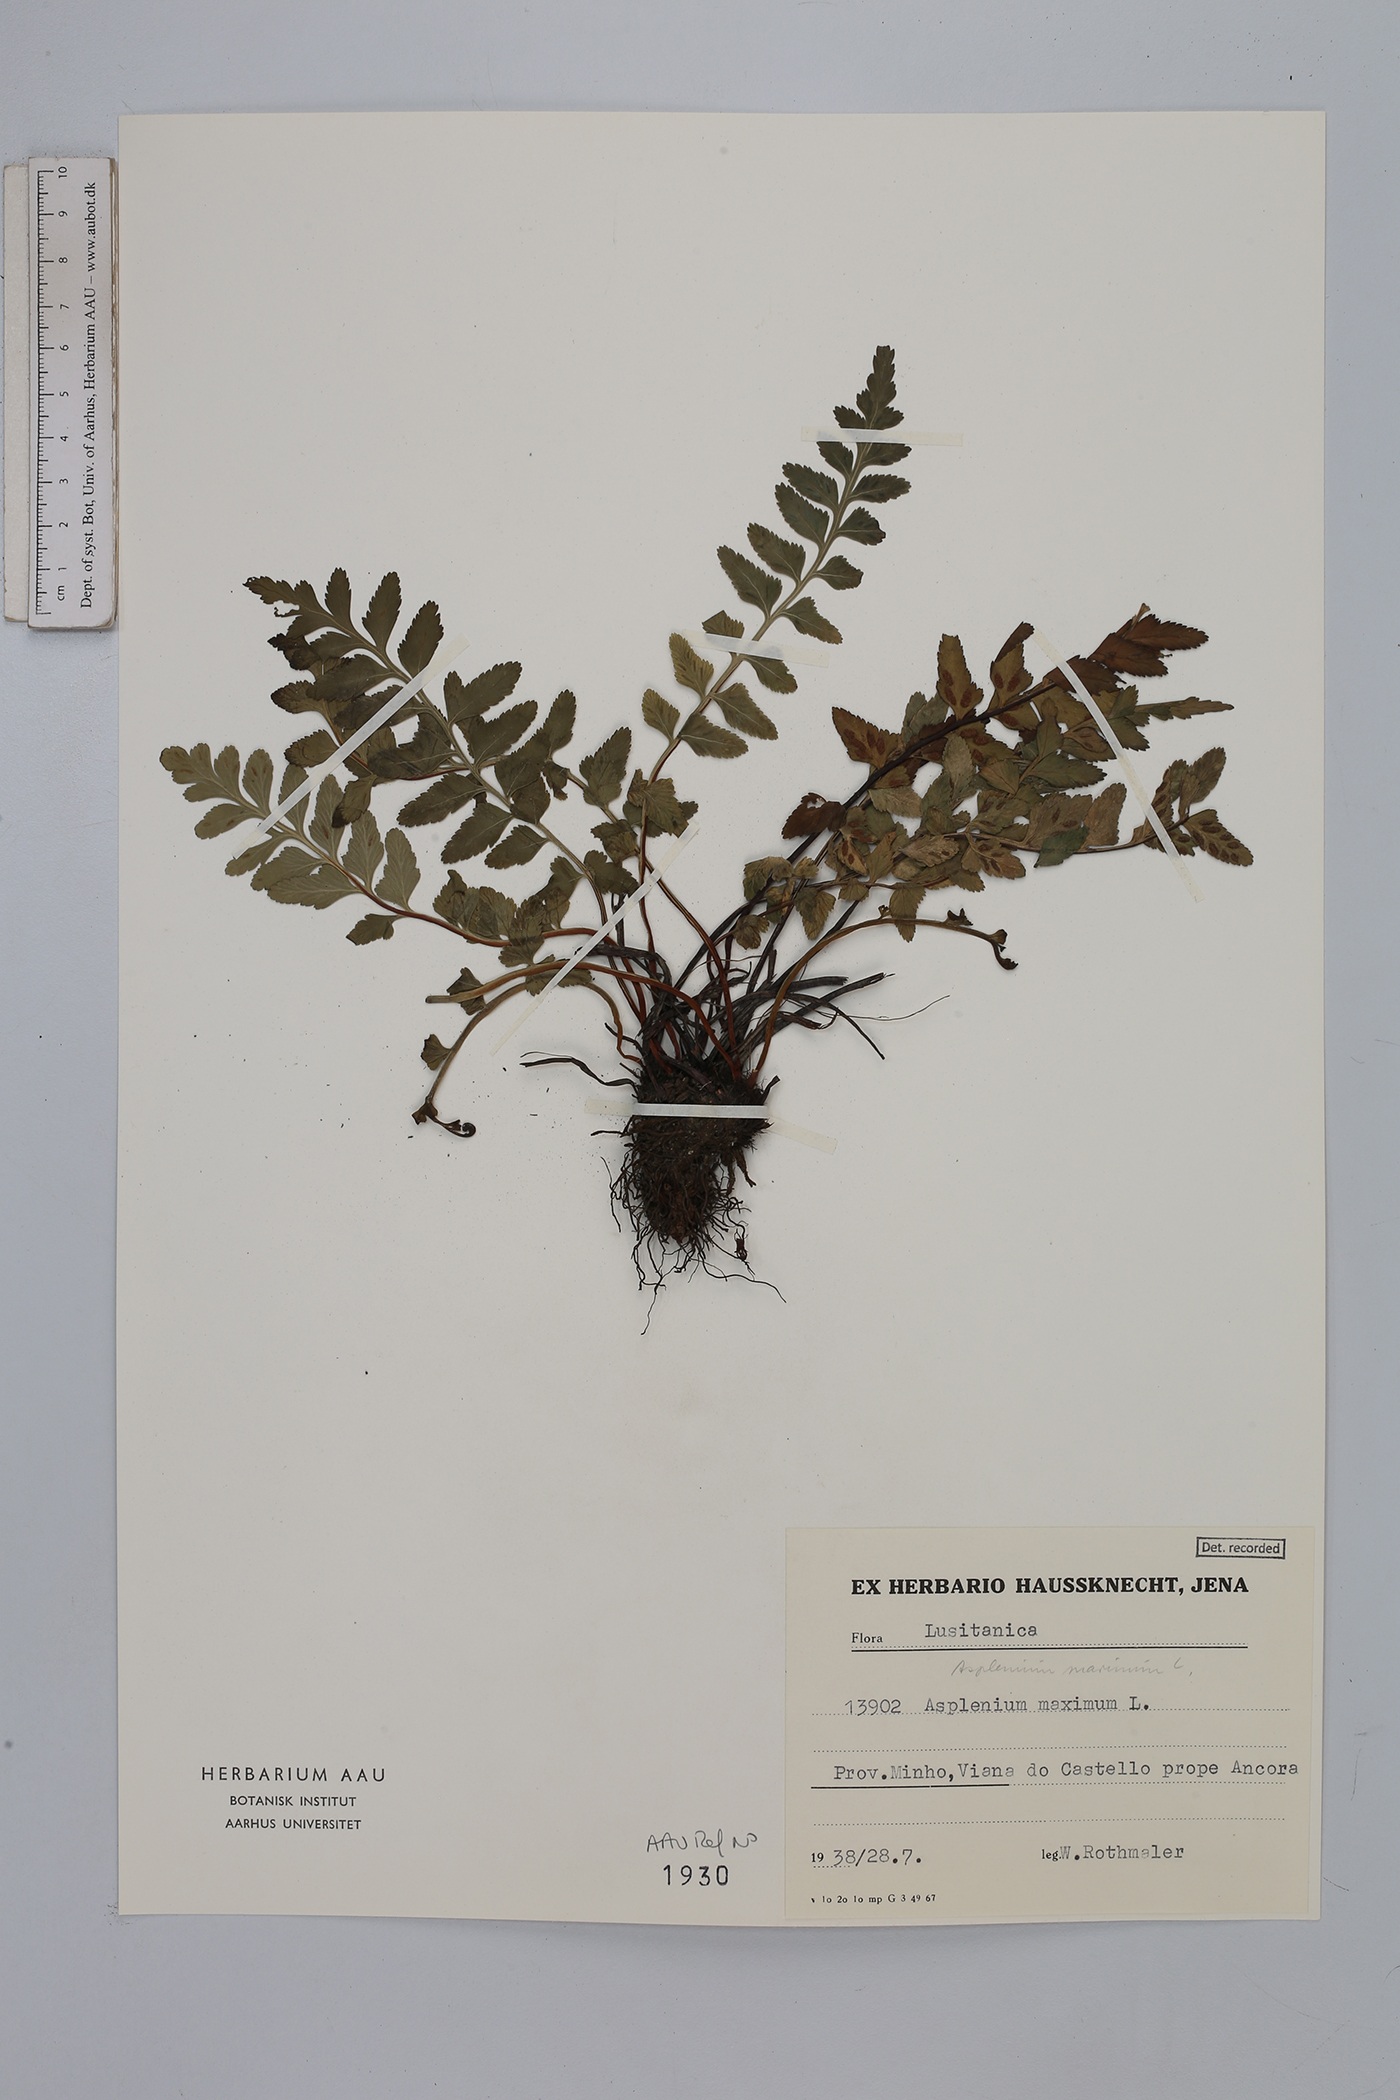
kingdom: Plantae
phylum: Tracheophyta
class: Polypodiopsida
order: Polypodiales
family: Aspleniaceae
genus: Asplenium
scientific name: Asplenium marinum
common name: Sea spleenwort
